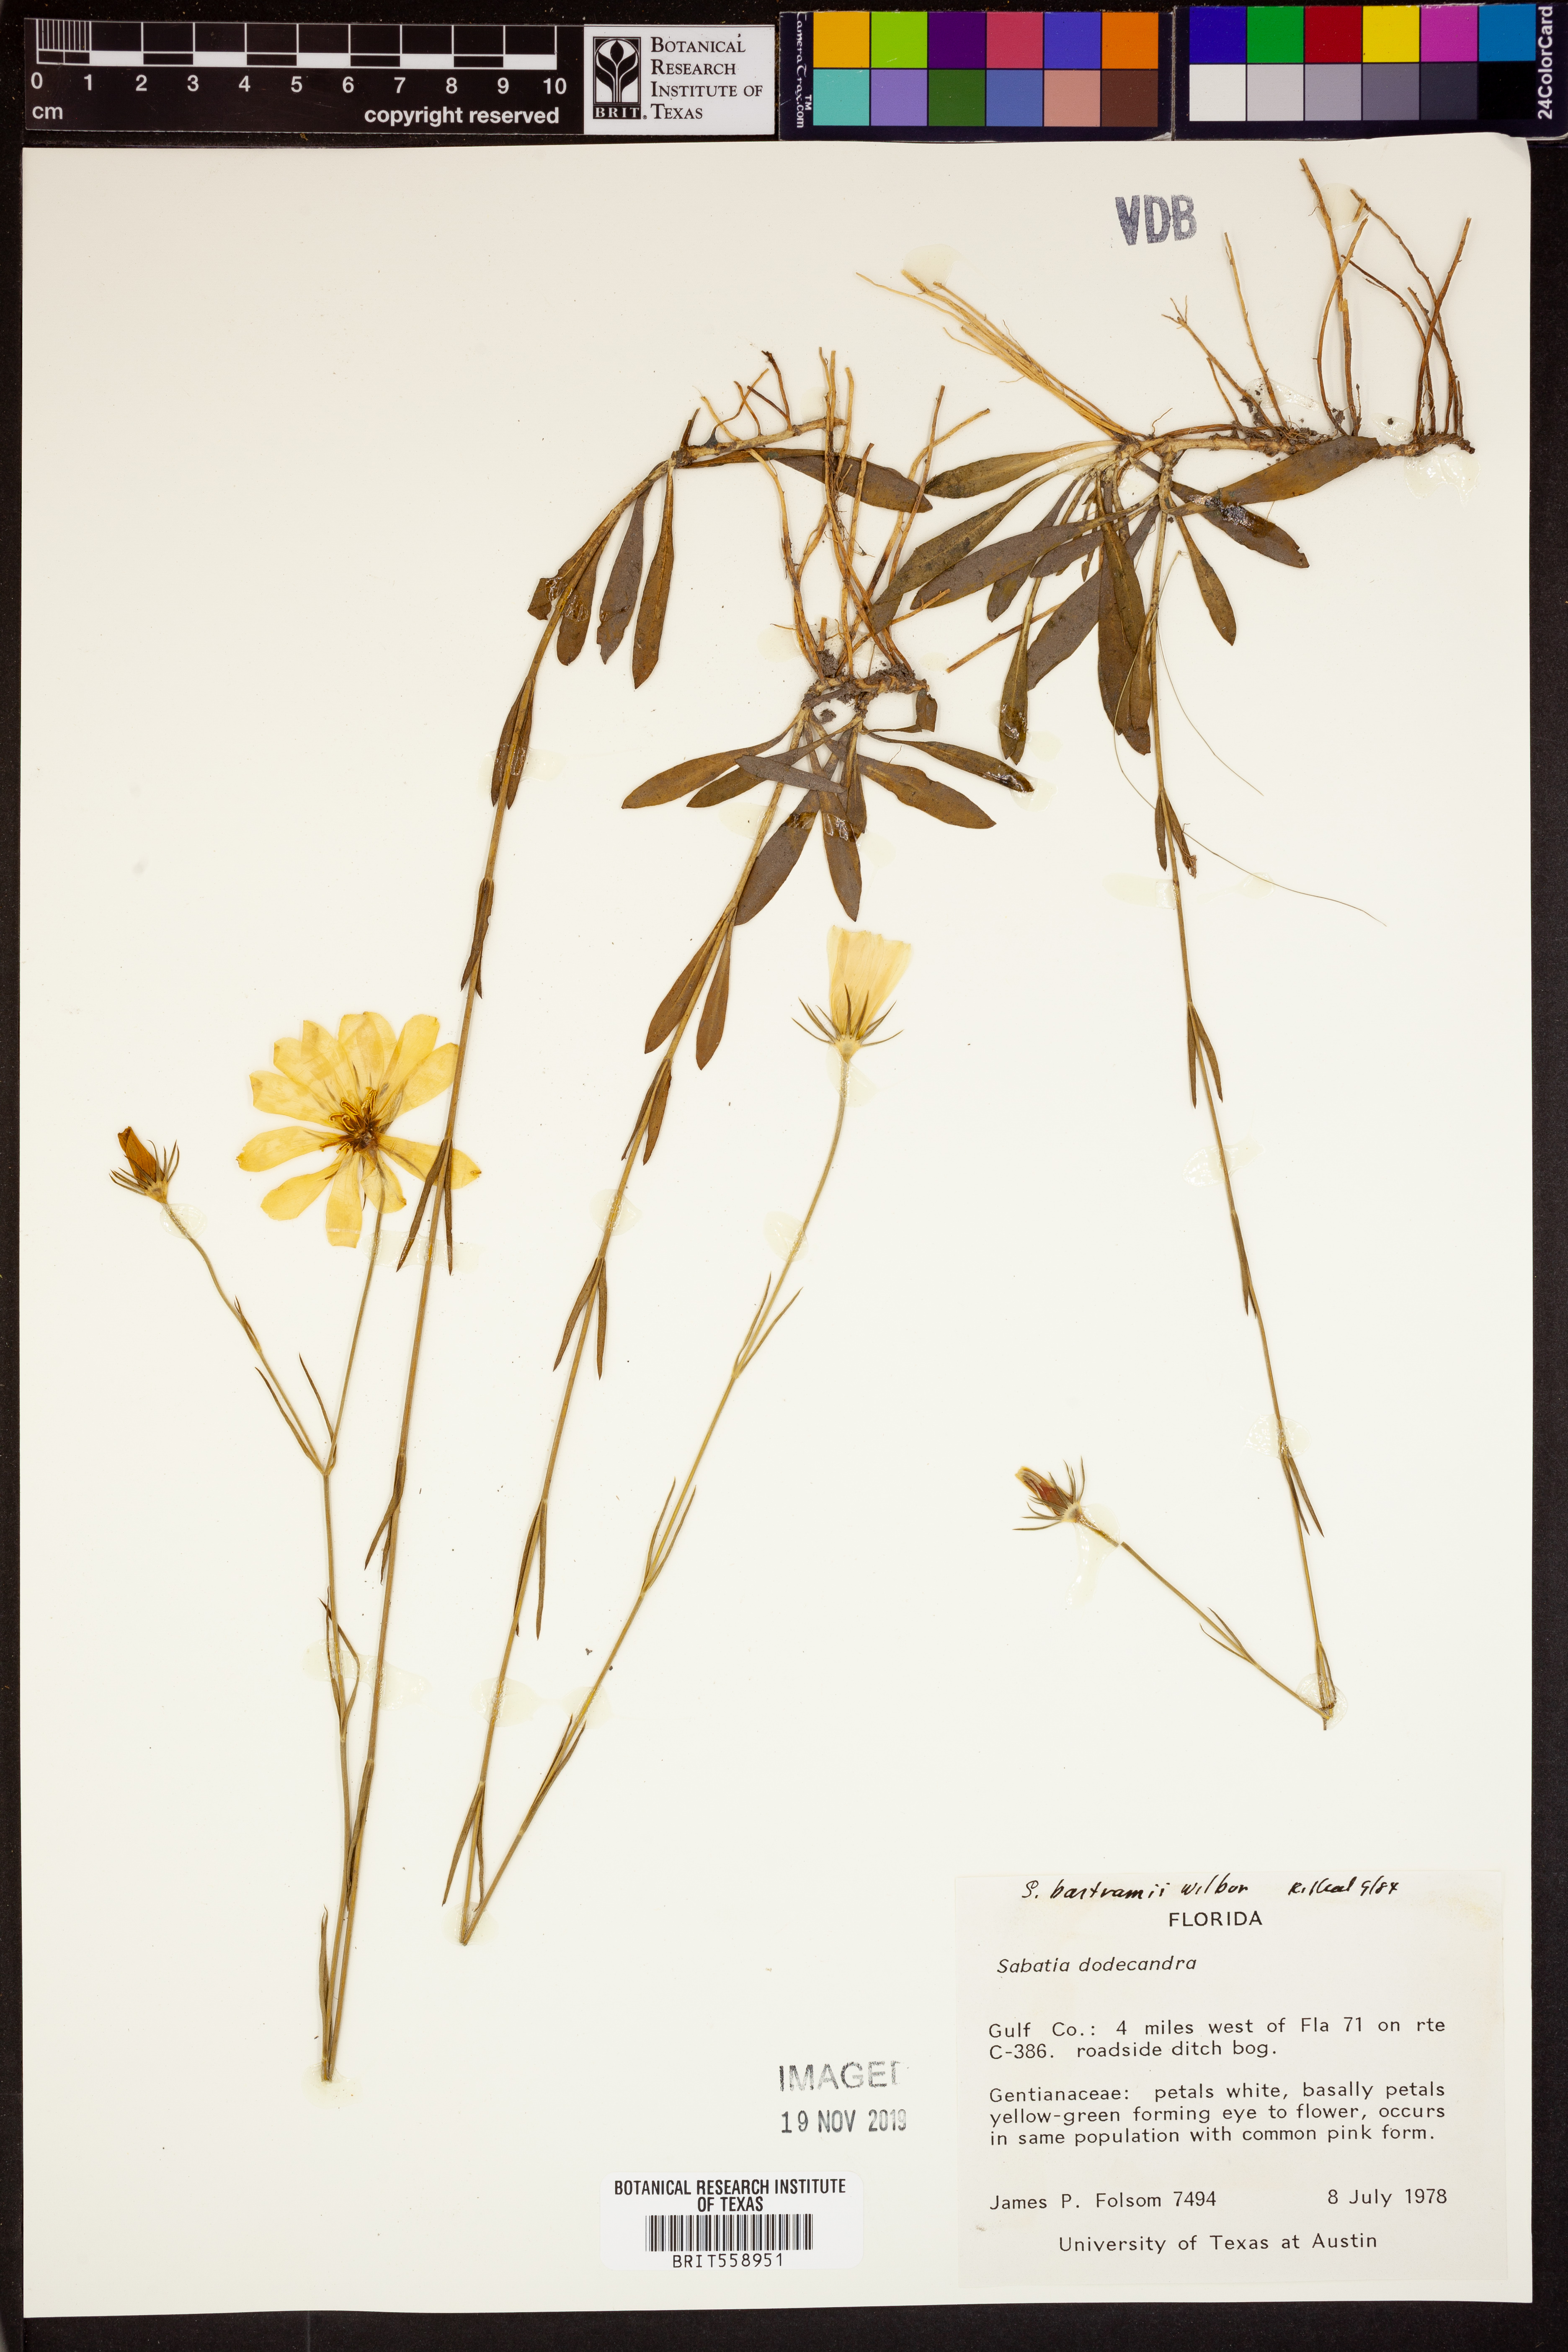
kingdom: Plantae
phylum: Tracheophyta
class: Magnoliopsida
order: Gentianales
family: Gentianaceae
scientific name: Gentianaceae
